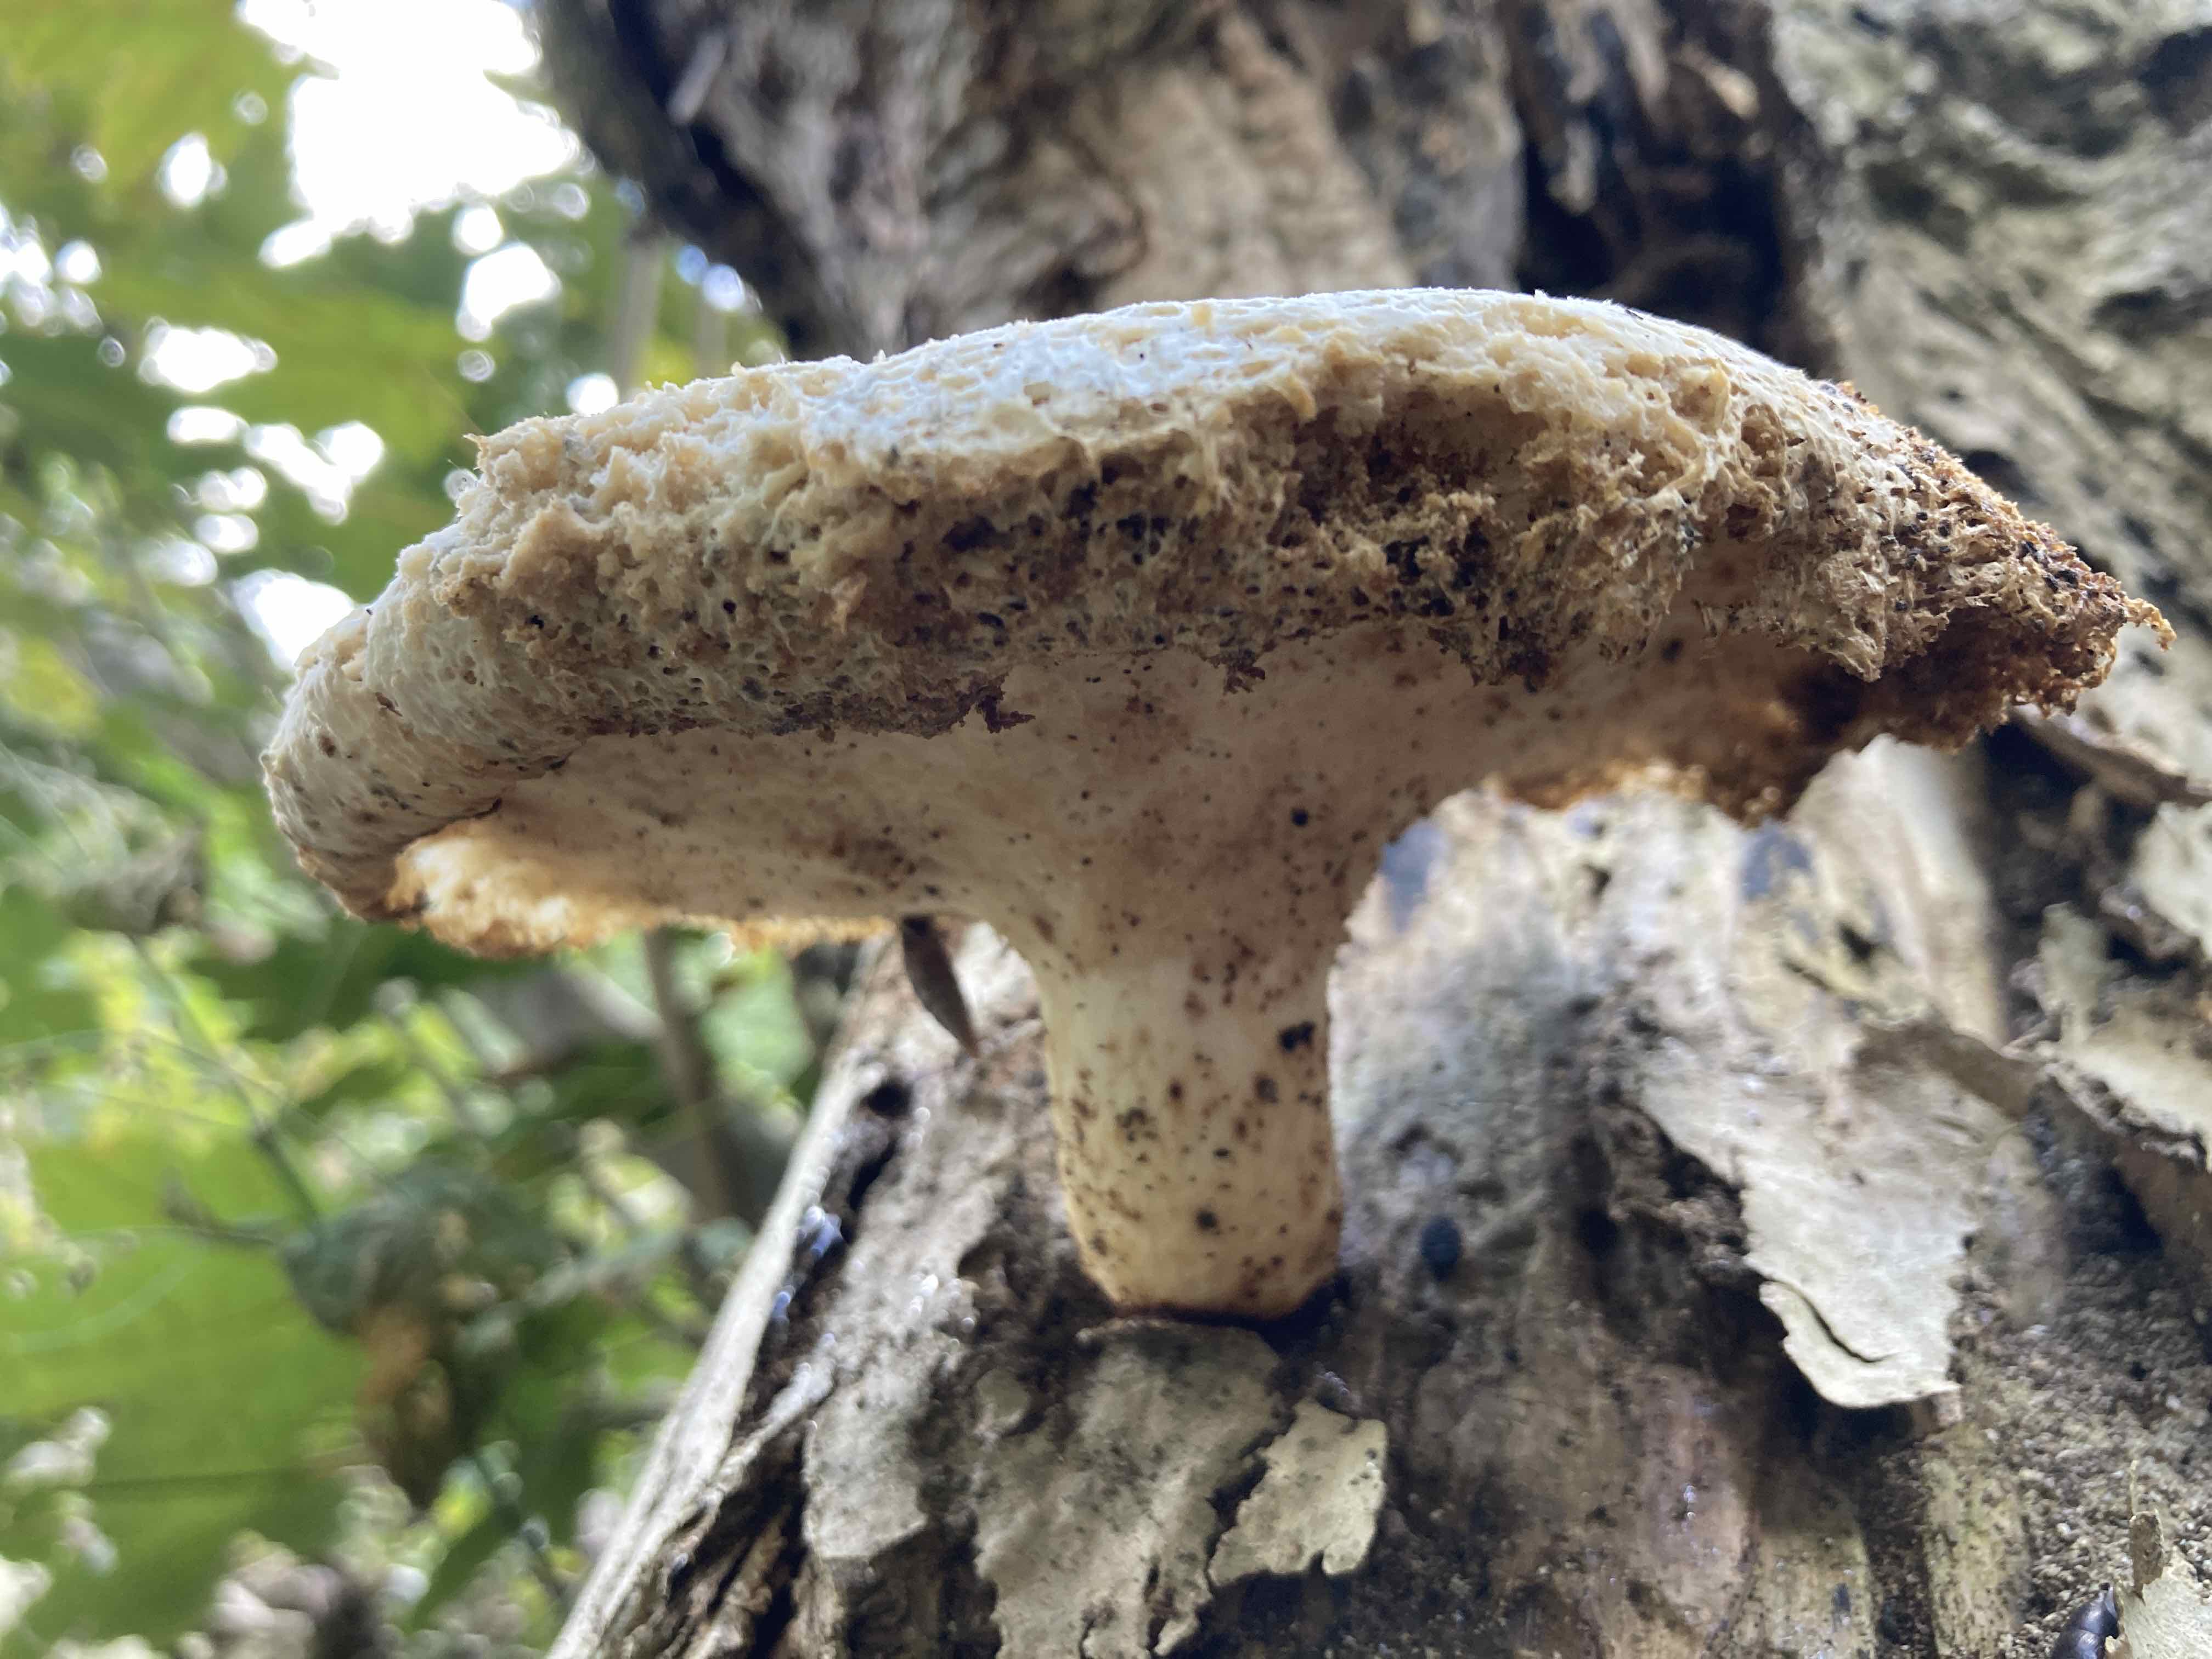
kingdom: Fungi
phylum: Basidiomycota
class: Agaricomycetes
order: Polyporales
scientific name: Polyporales
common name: poresvampordenen
